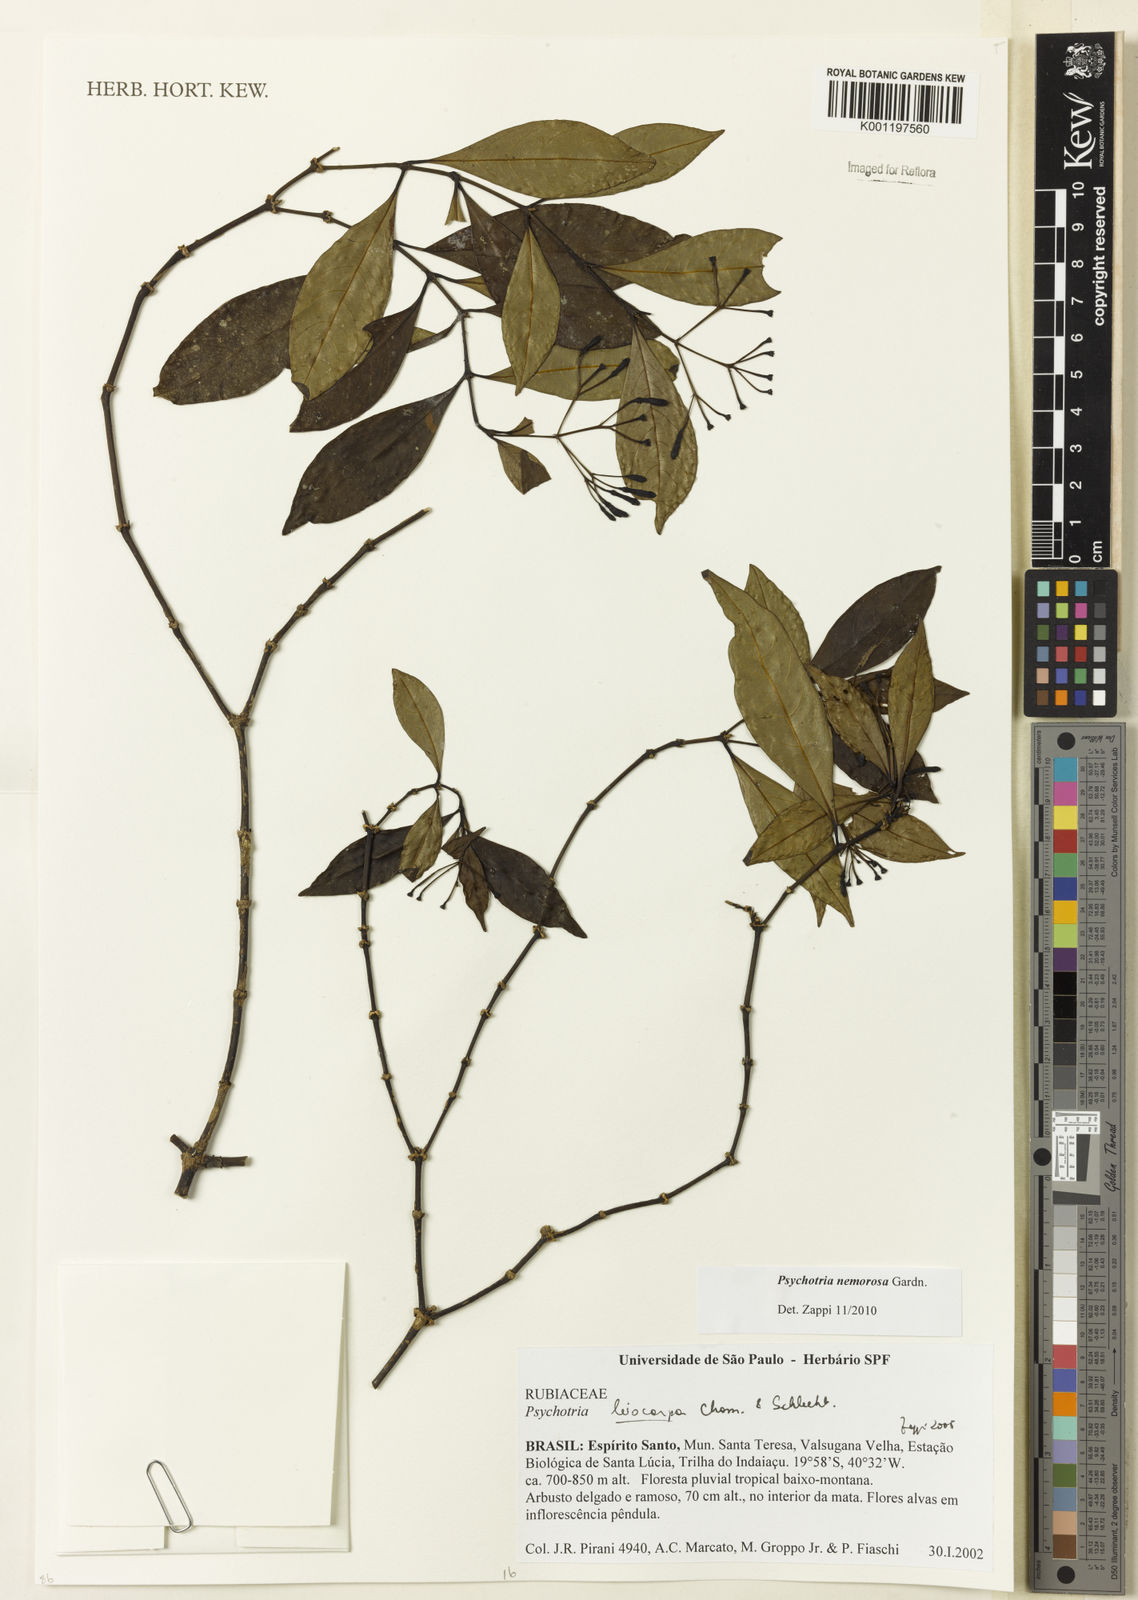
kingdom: Plantae
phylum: Tracheophyta
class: Magnoliopsida
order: Gentianales
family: Rubiaceae
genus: Psychotria
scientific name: Psychotria nemorosa
